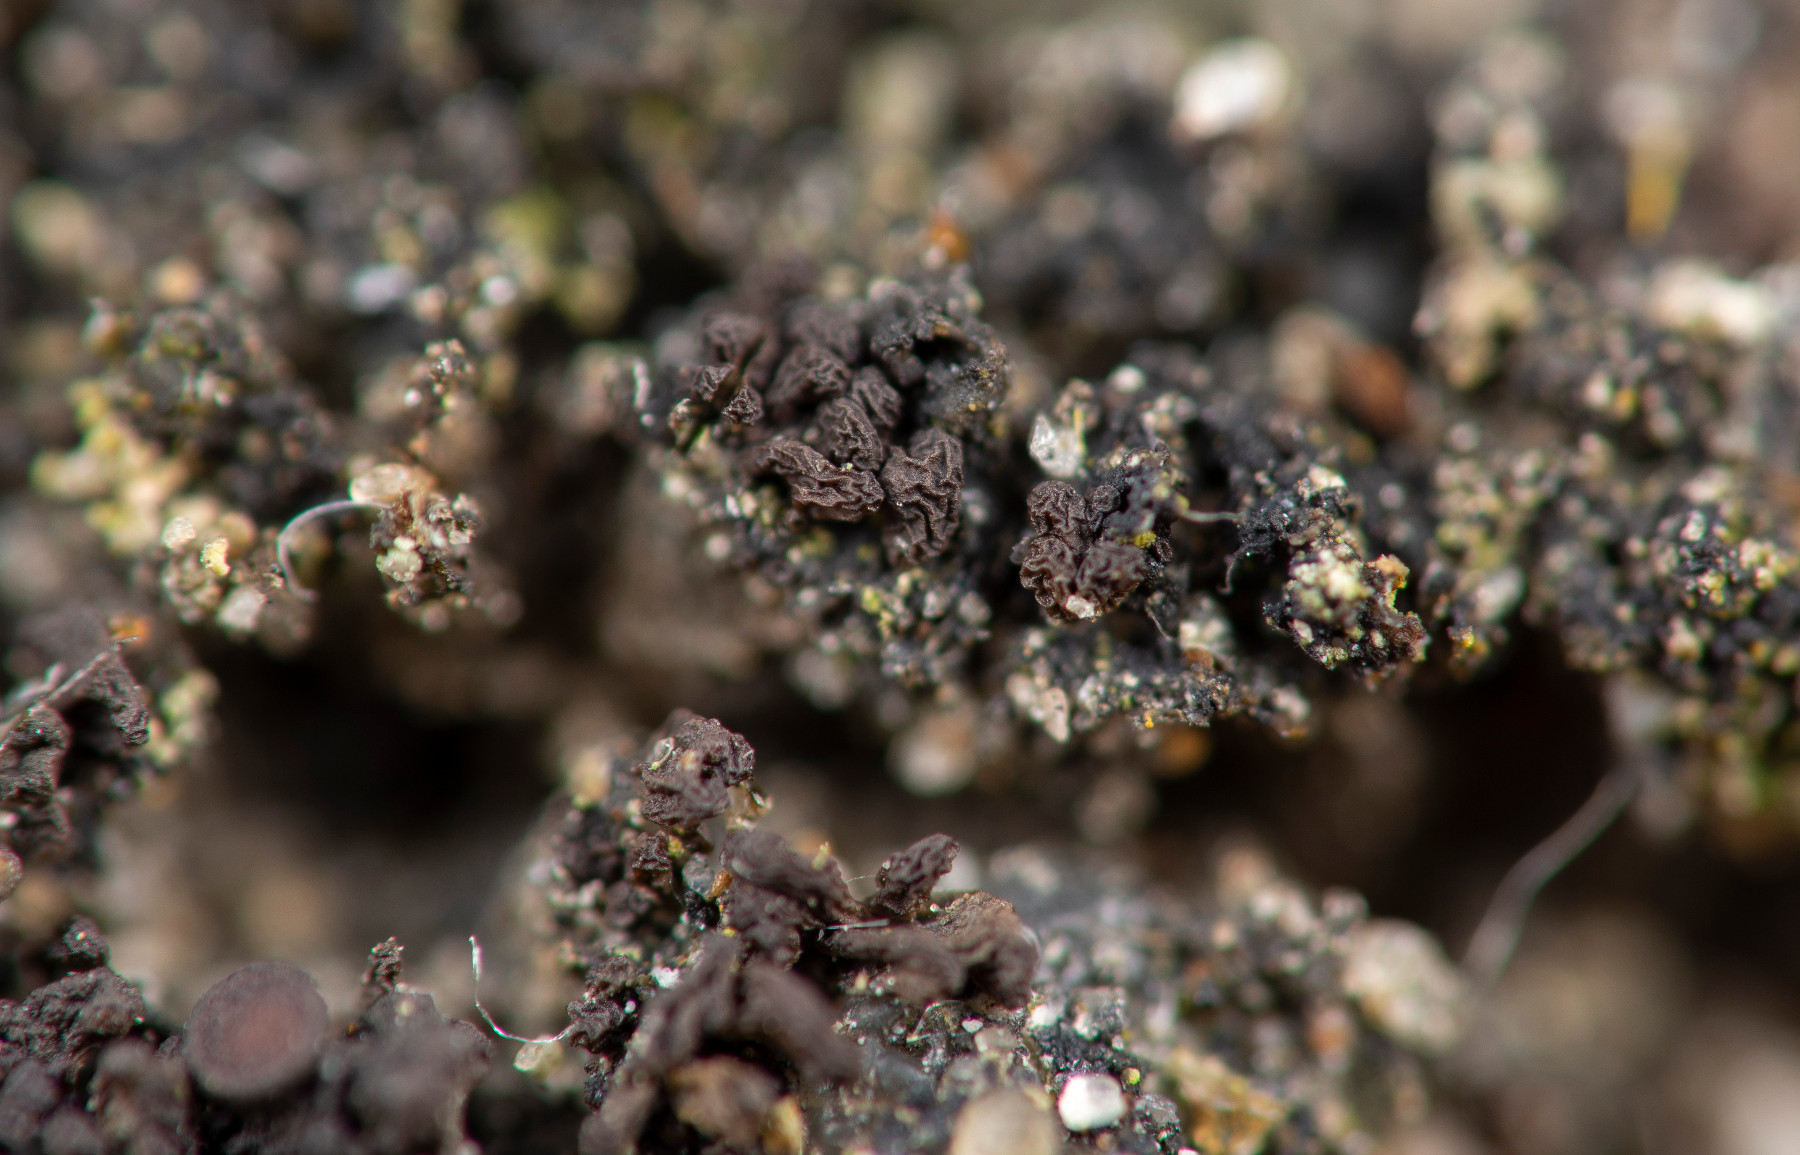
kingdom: Fungi
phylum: Ascomycota
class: Lecanoromycetes
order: Peltigerales
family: Collemataceae
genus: Scytinium
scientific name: Scytinium schraderi
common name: grubet hindelav
